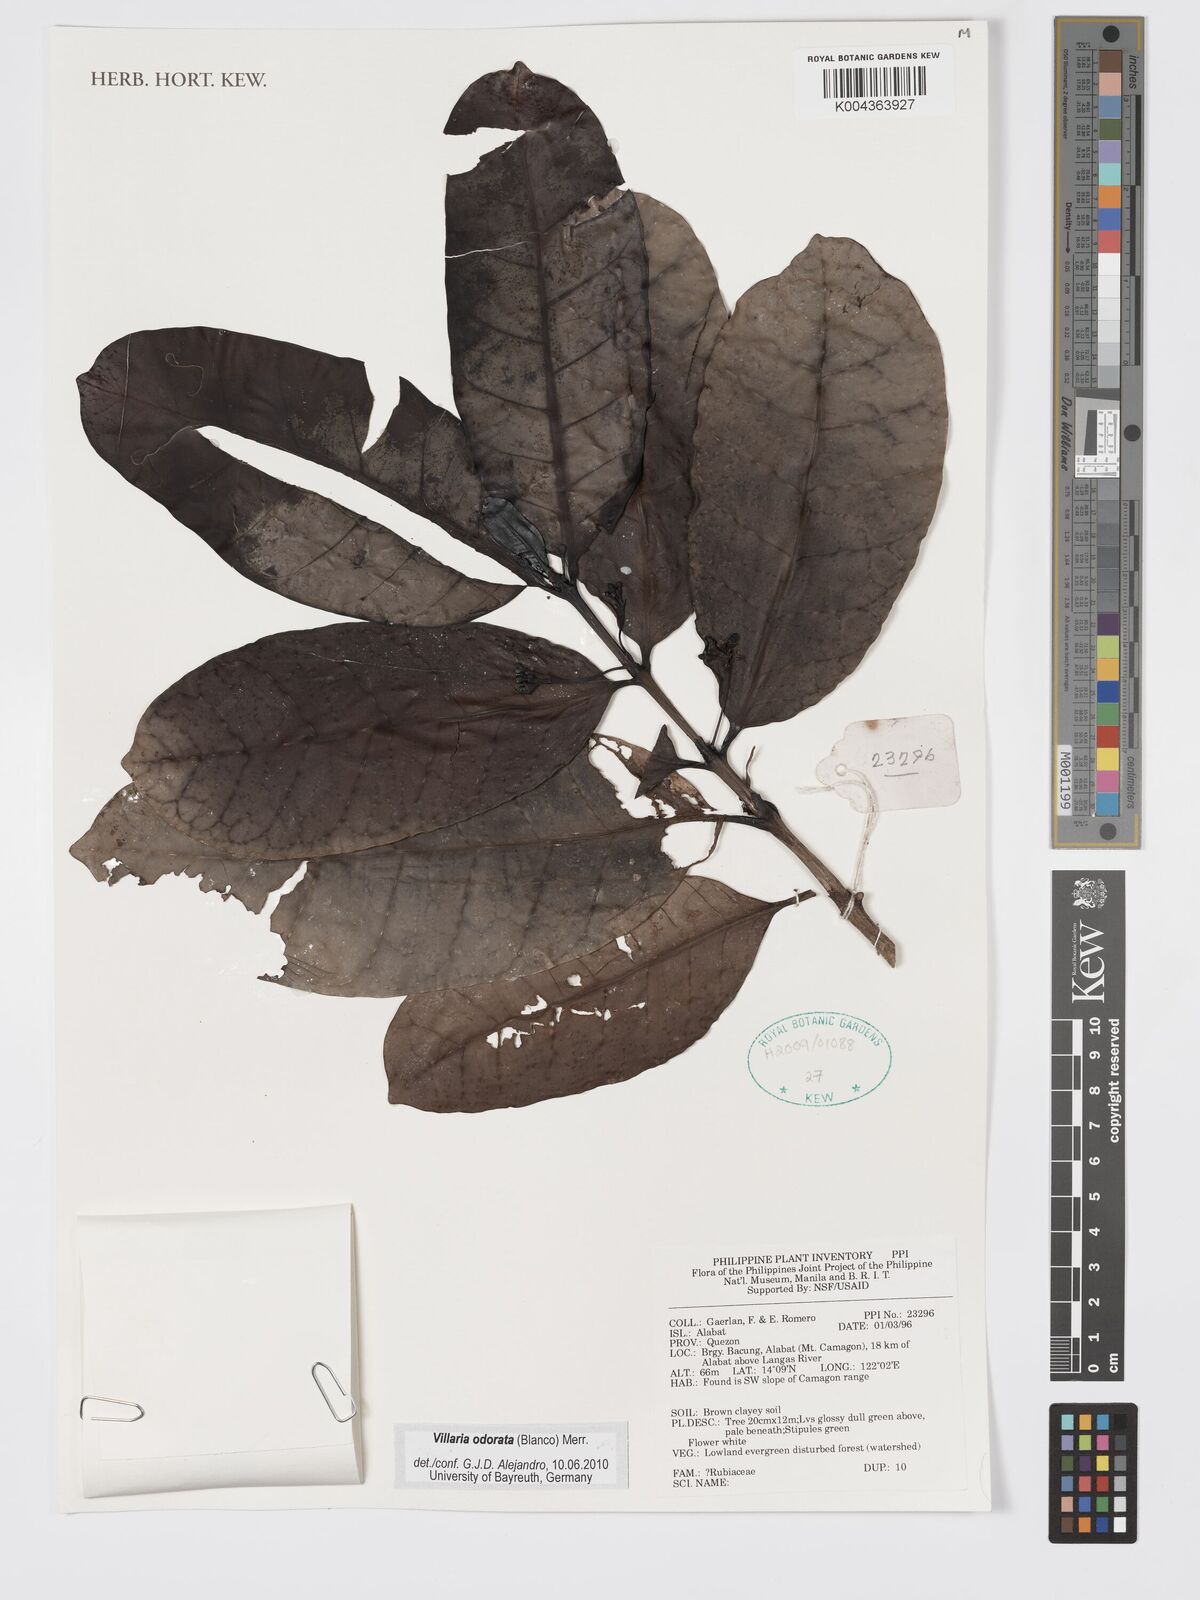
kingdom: Plantae
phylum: Tracheophyta
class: Magnoliopsida
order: Gentianales
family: Rubiaceae
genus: Villaria
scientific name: Villaria odorata
